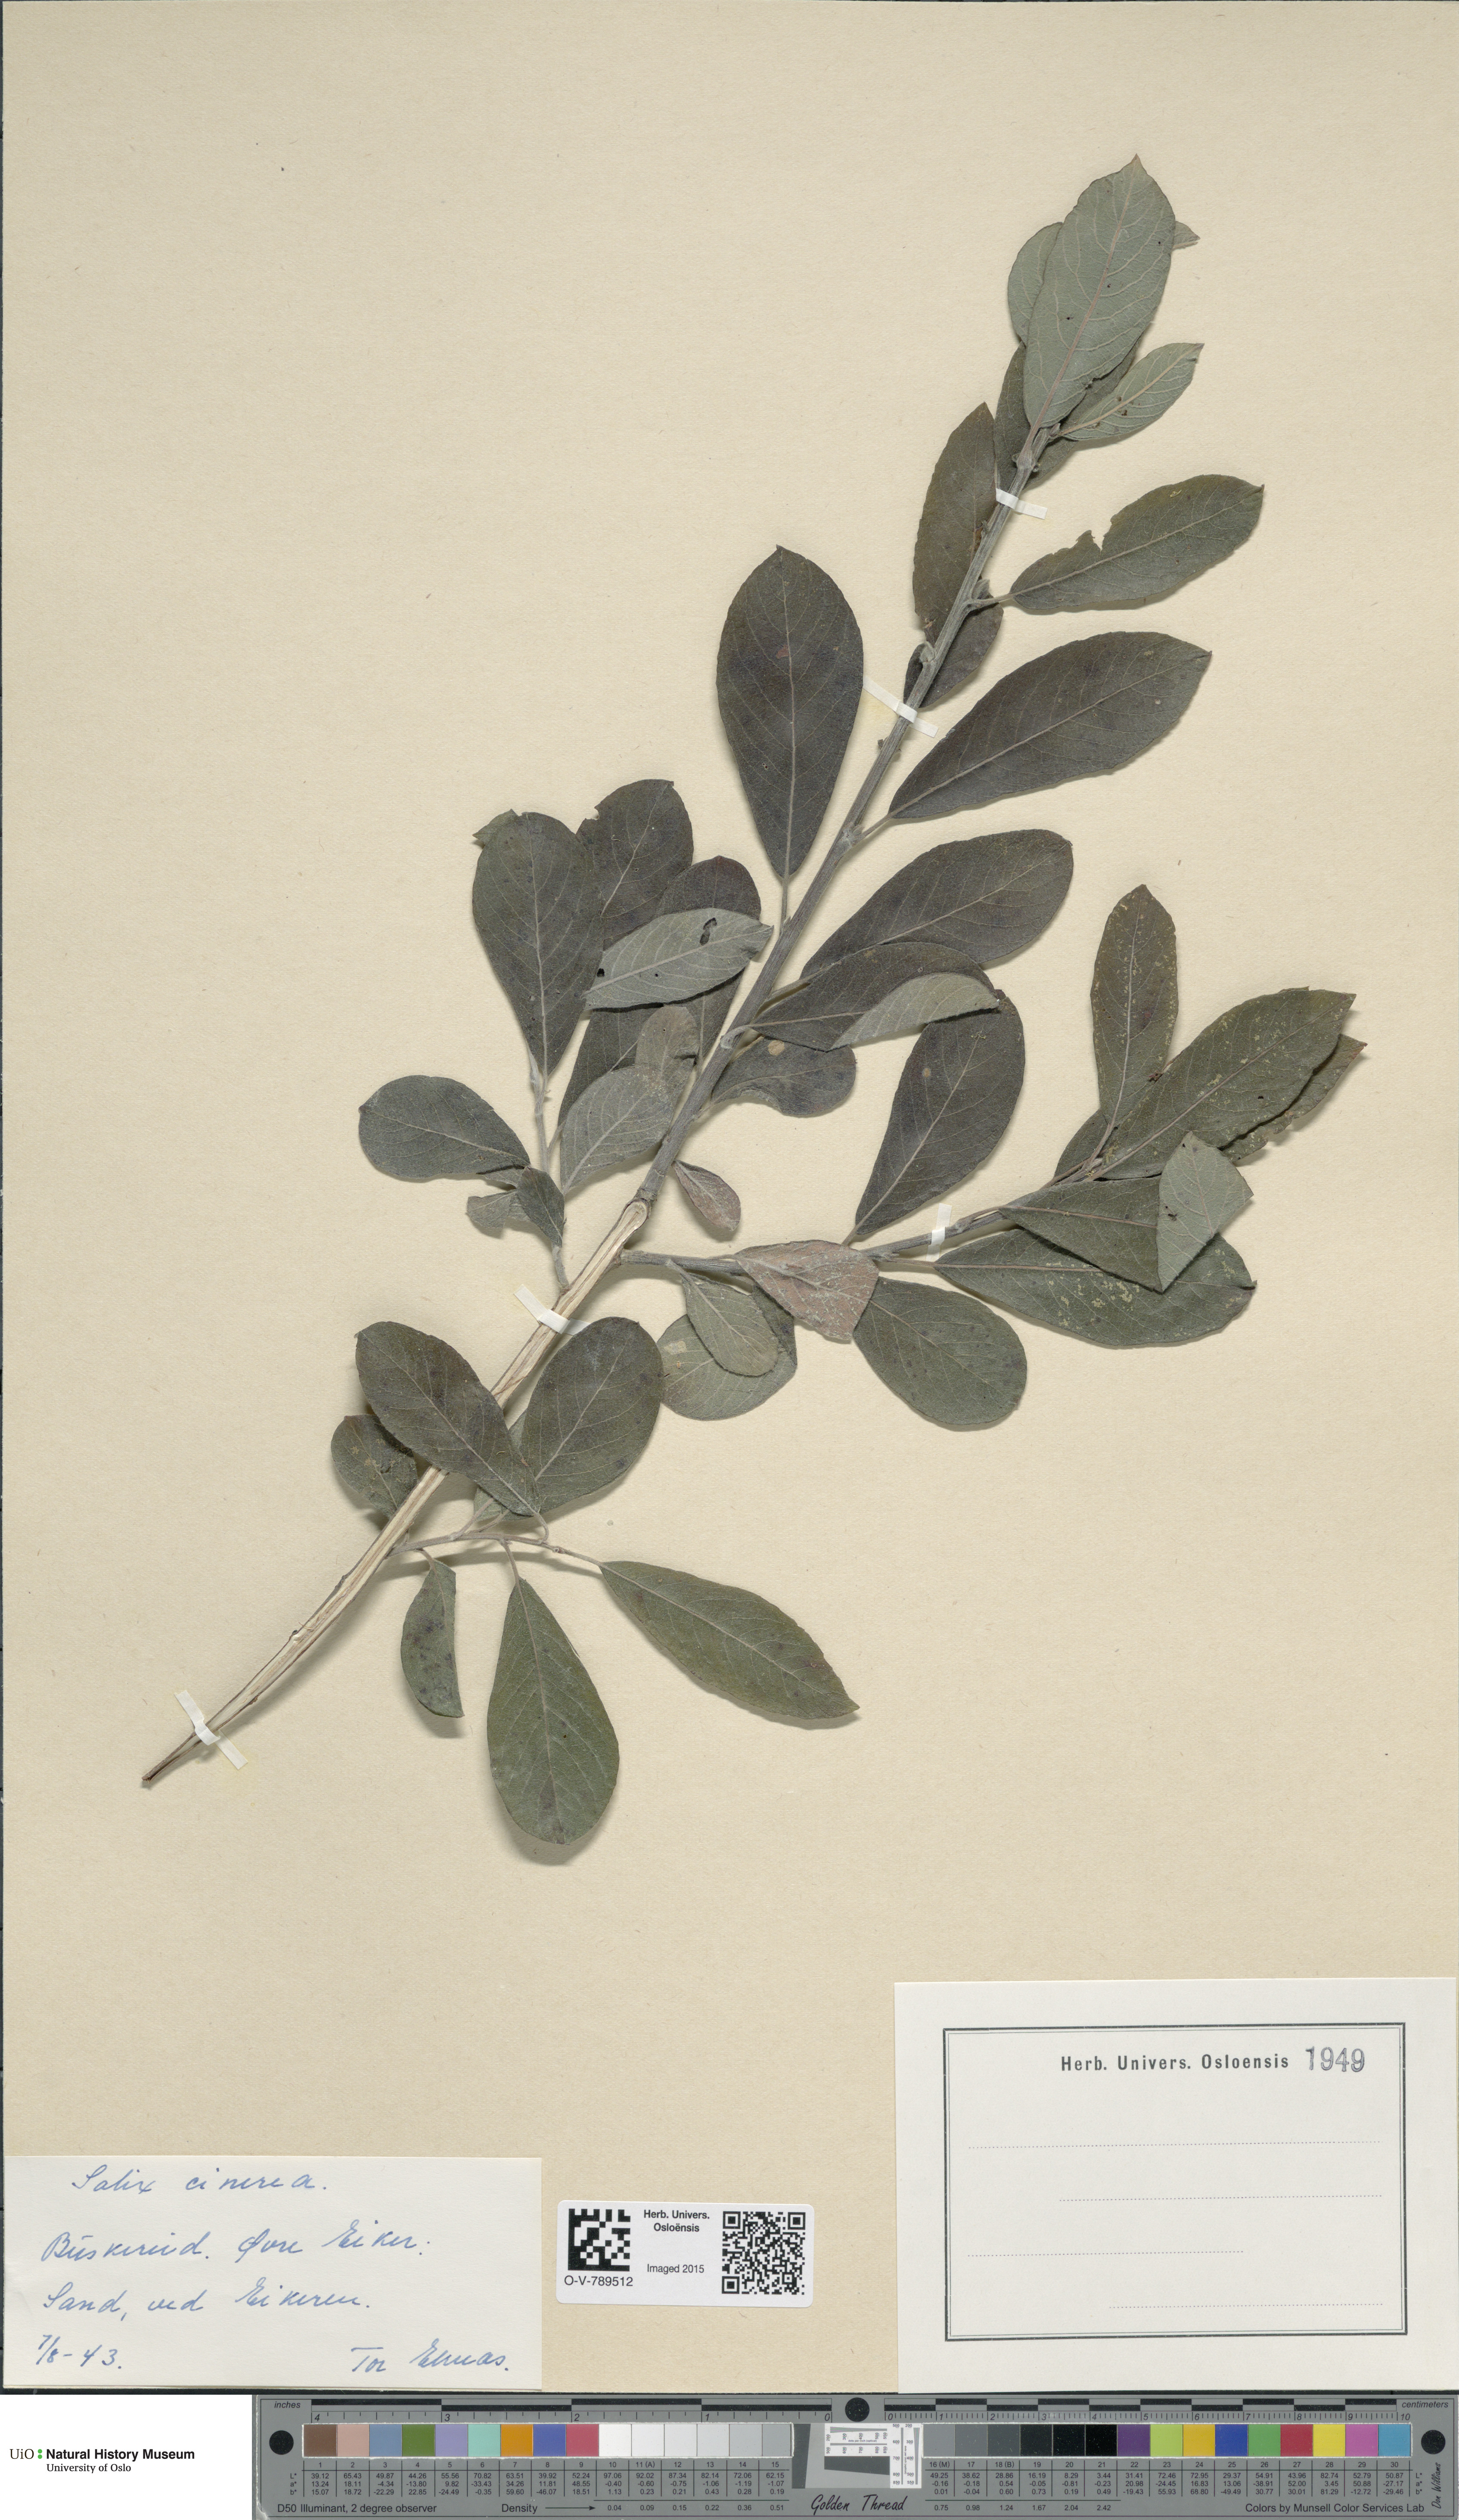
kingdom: Plantae
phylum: Tracheophyta
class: Magnoliopsida
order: Malpighiales
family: Salicaceae
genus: Salix
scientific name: Salix cinerea
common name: Common sallow
